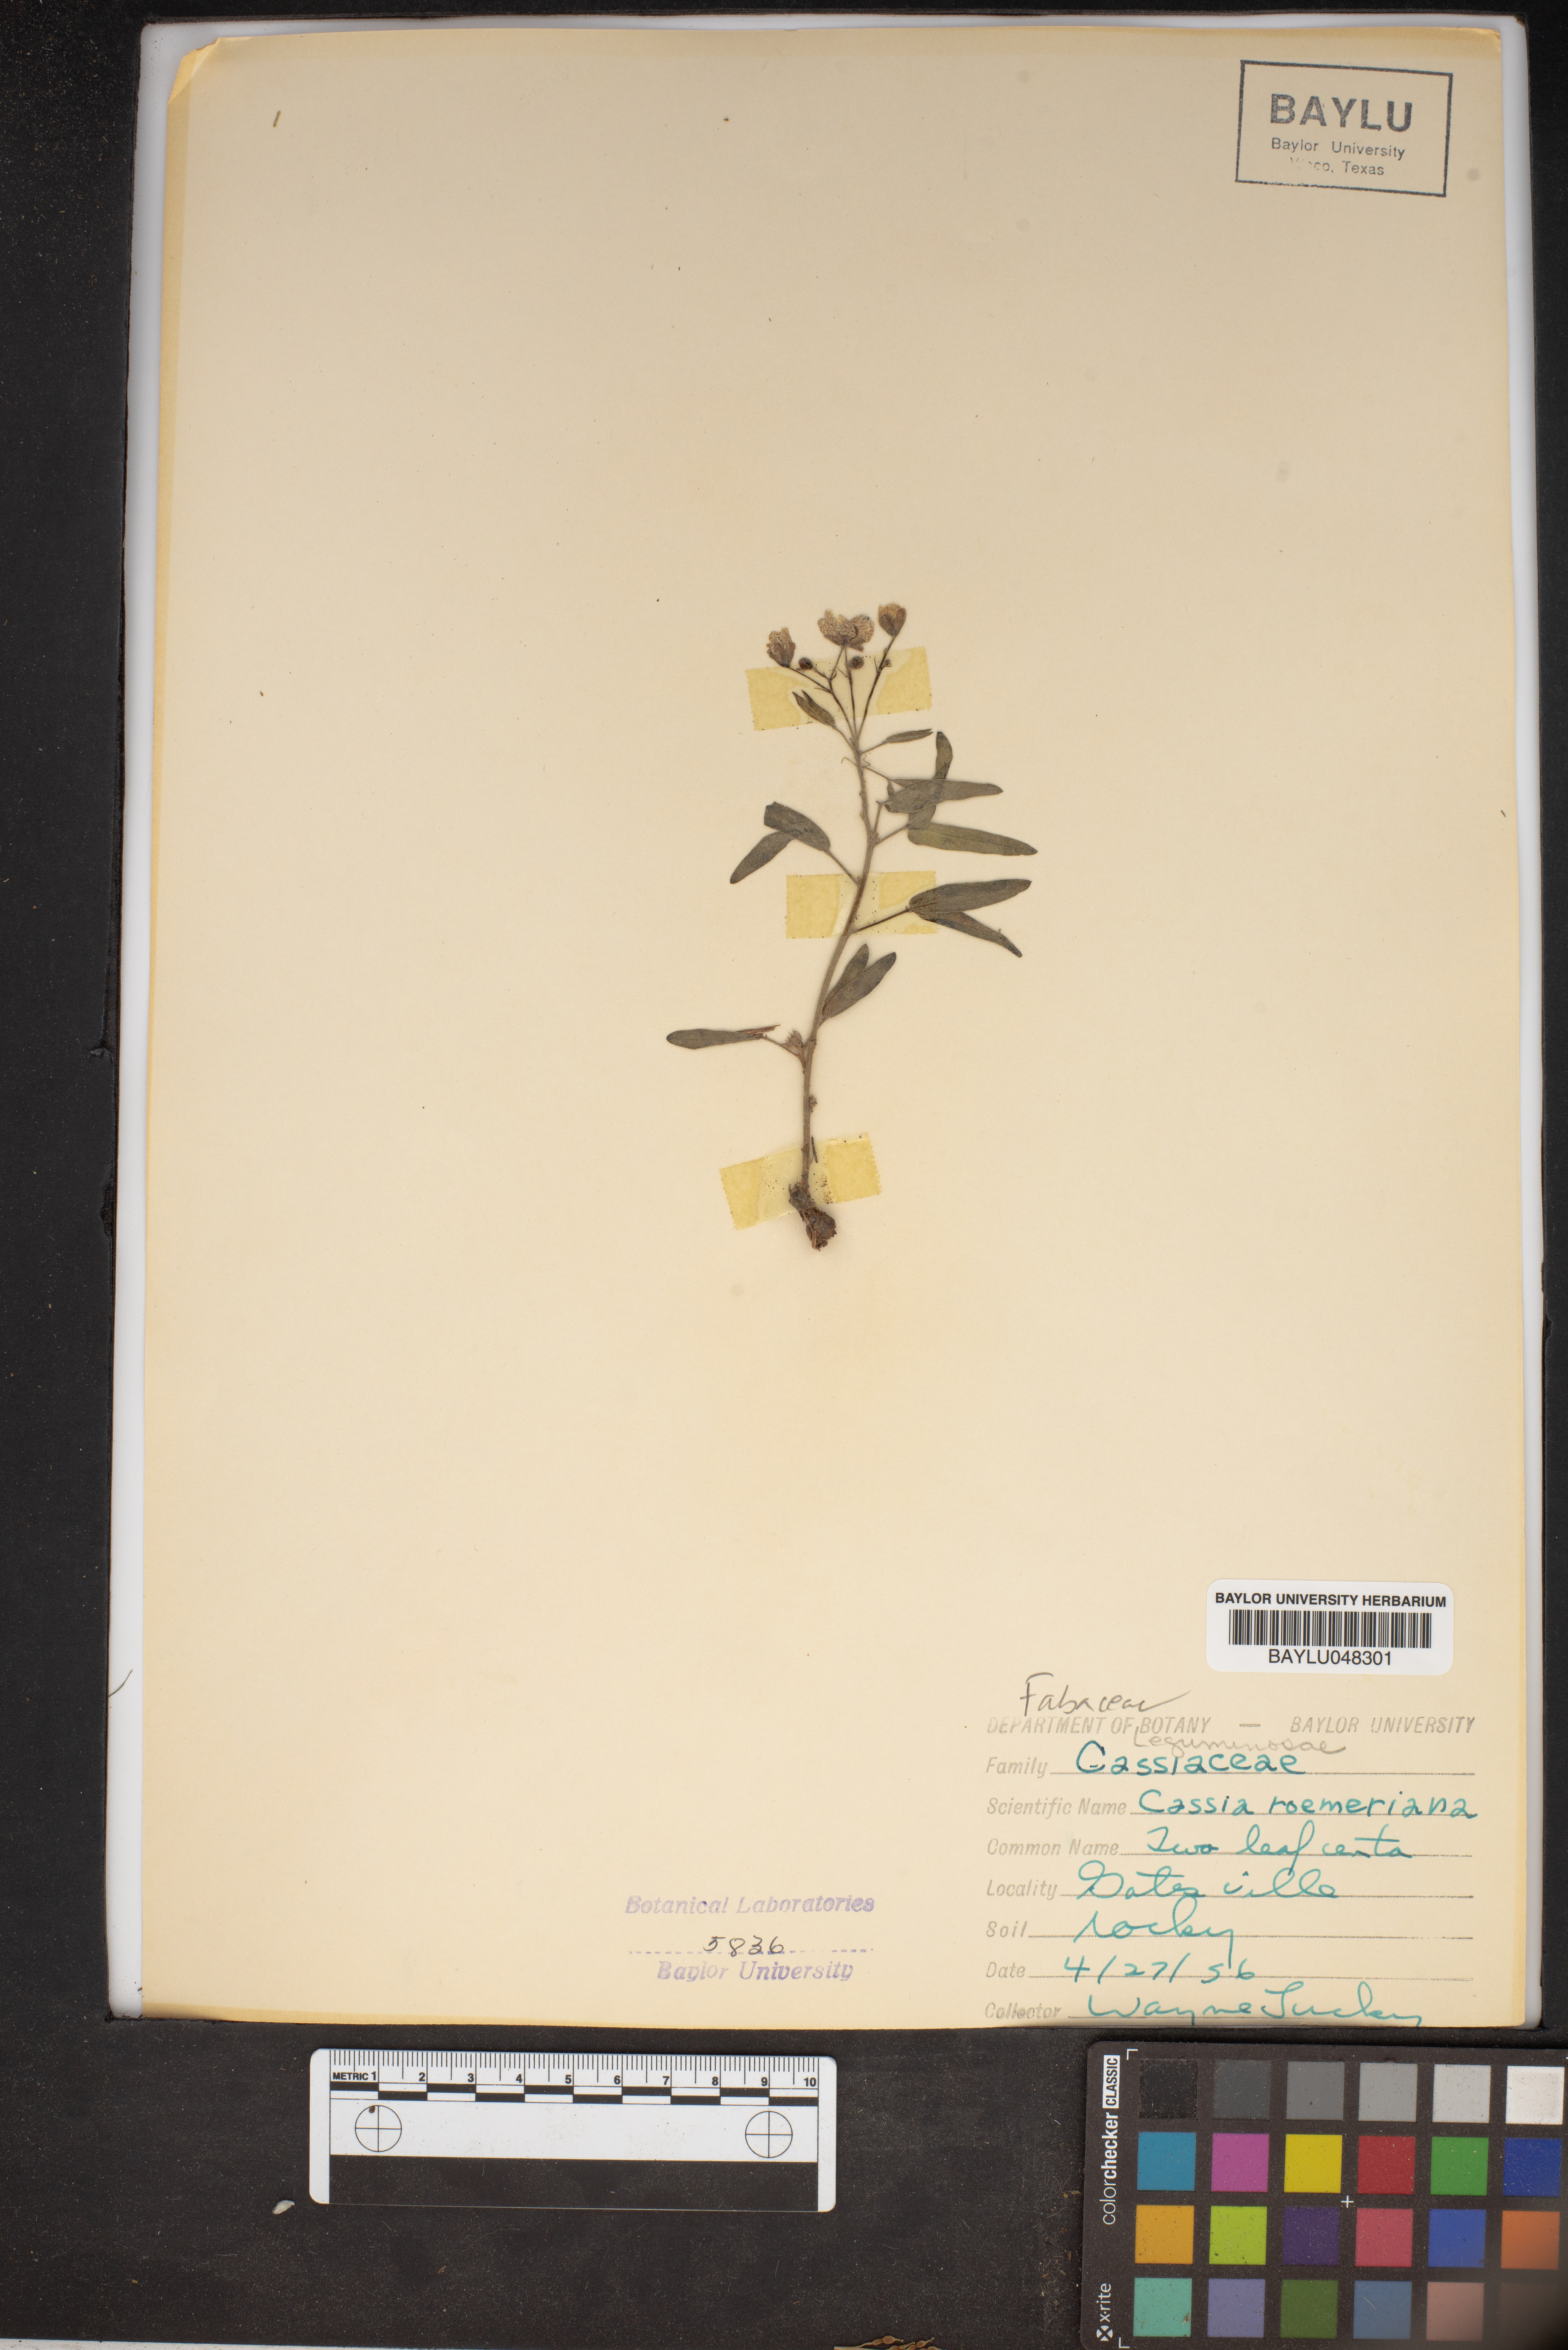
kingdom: Plantae
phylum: Tracheophyta
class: Magnoliopsida
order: Fabales
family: Fabaceae
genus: Senna
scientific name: Senna roemeriana
